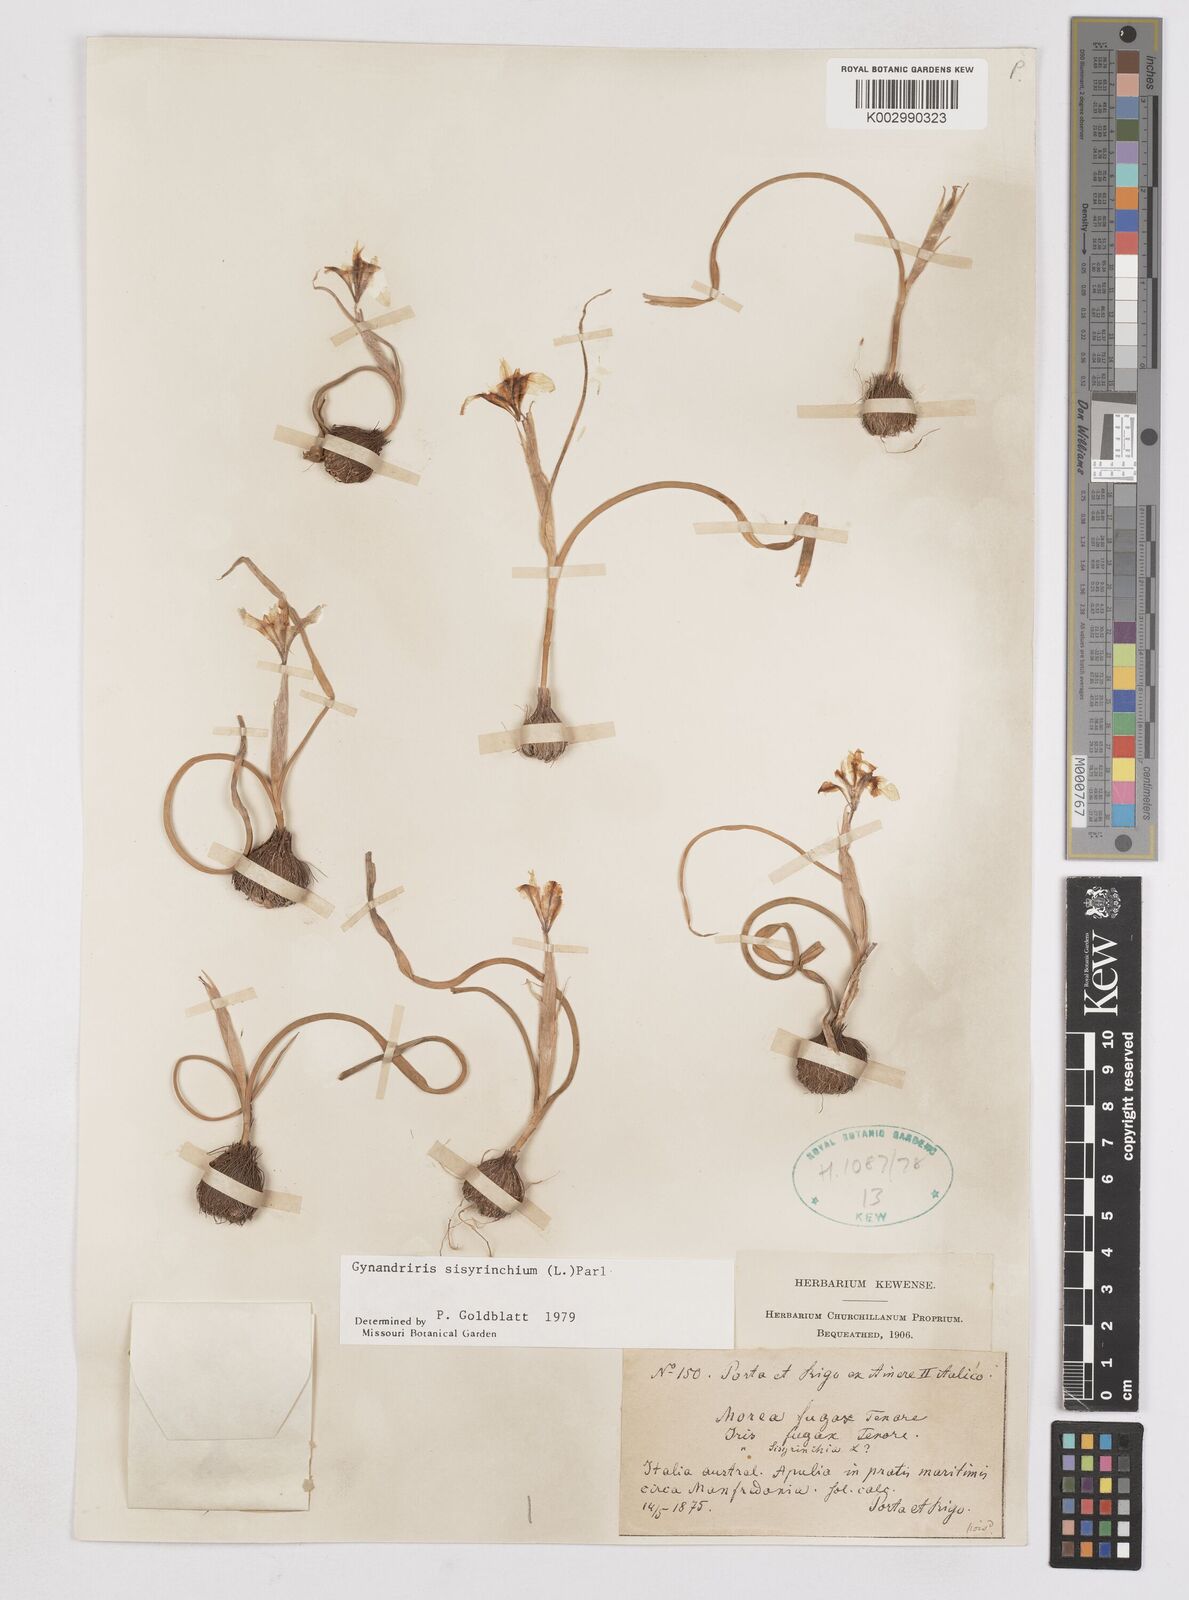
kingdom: Plantae
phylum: Tracheophyta
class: Liliopsida
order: Asparagales
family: Iridaceae
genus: Moraea
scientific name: Moraea sisyrinchium
